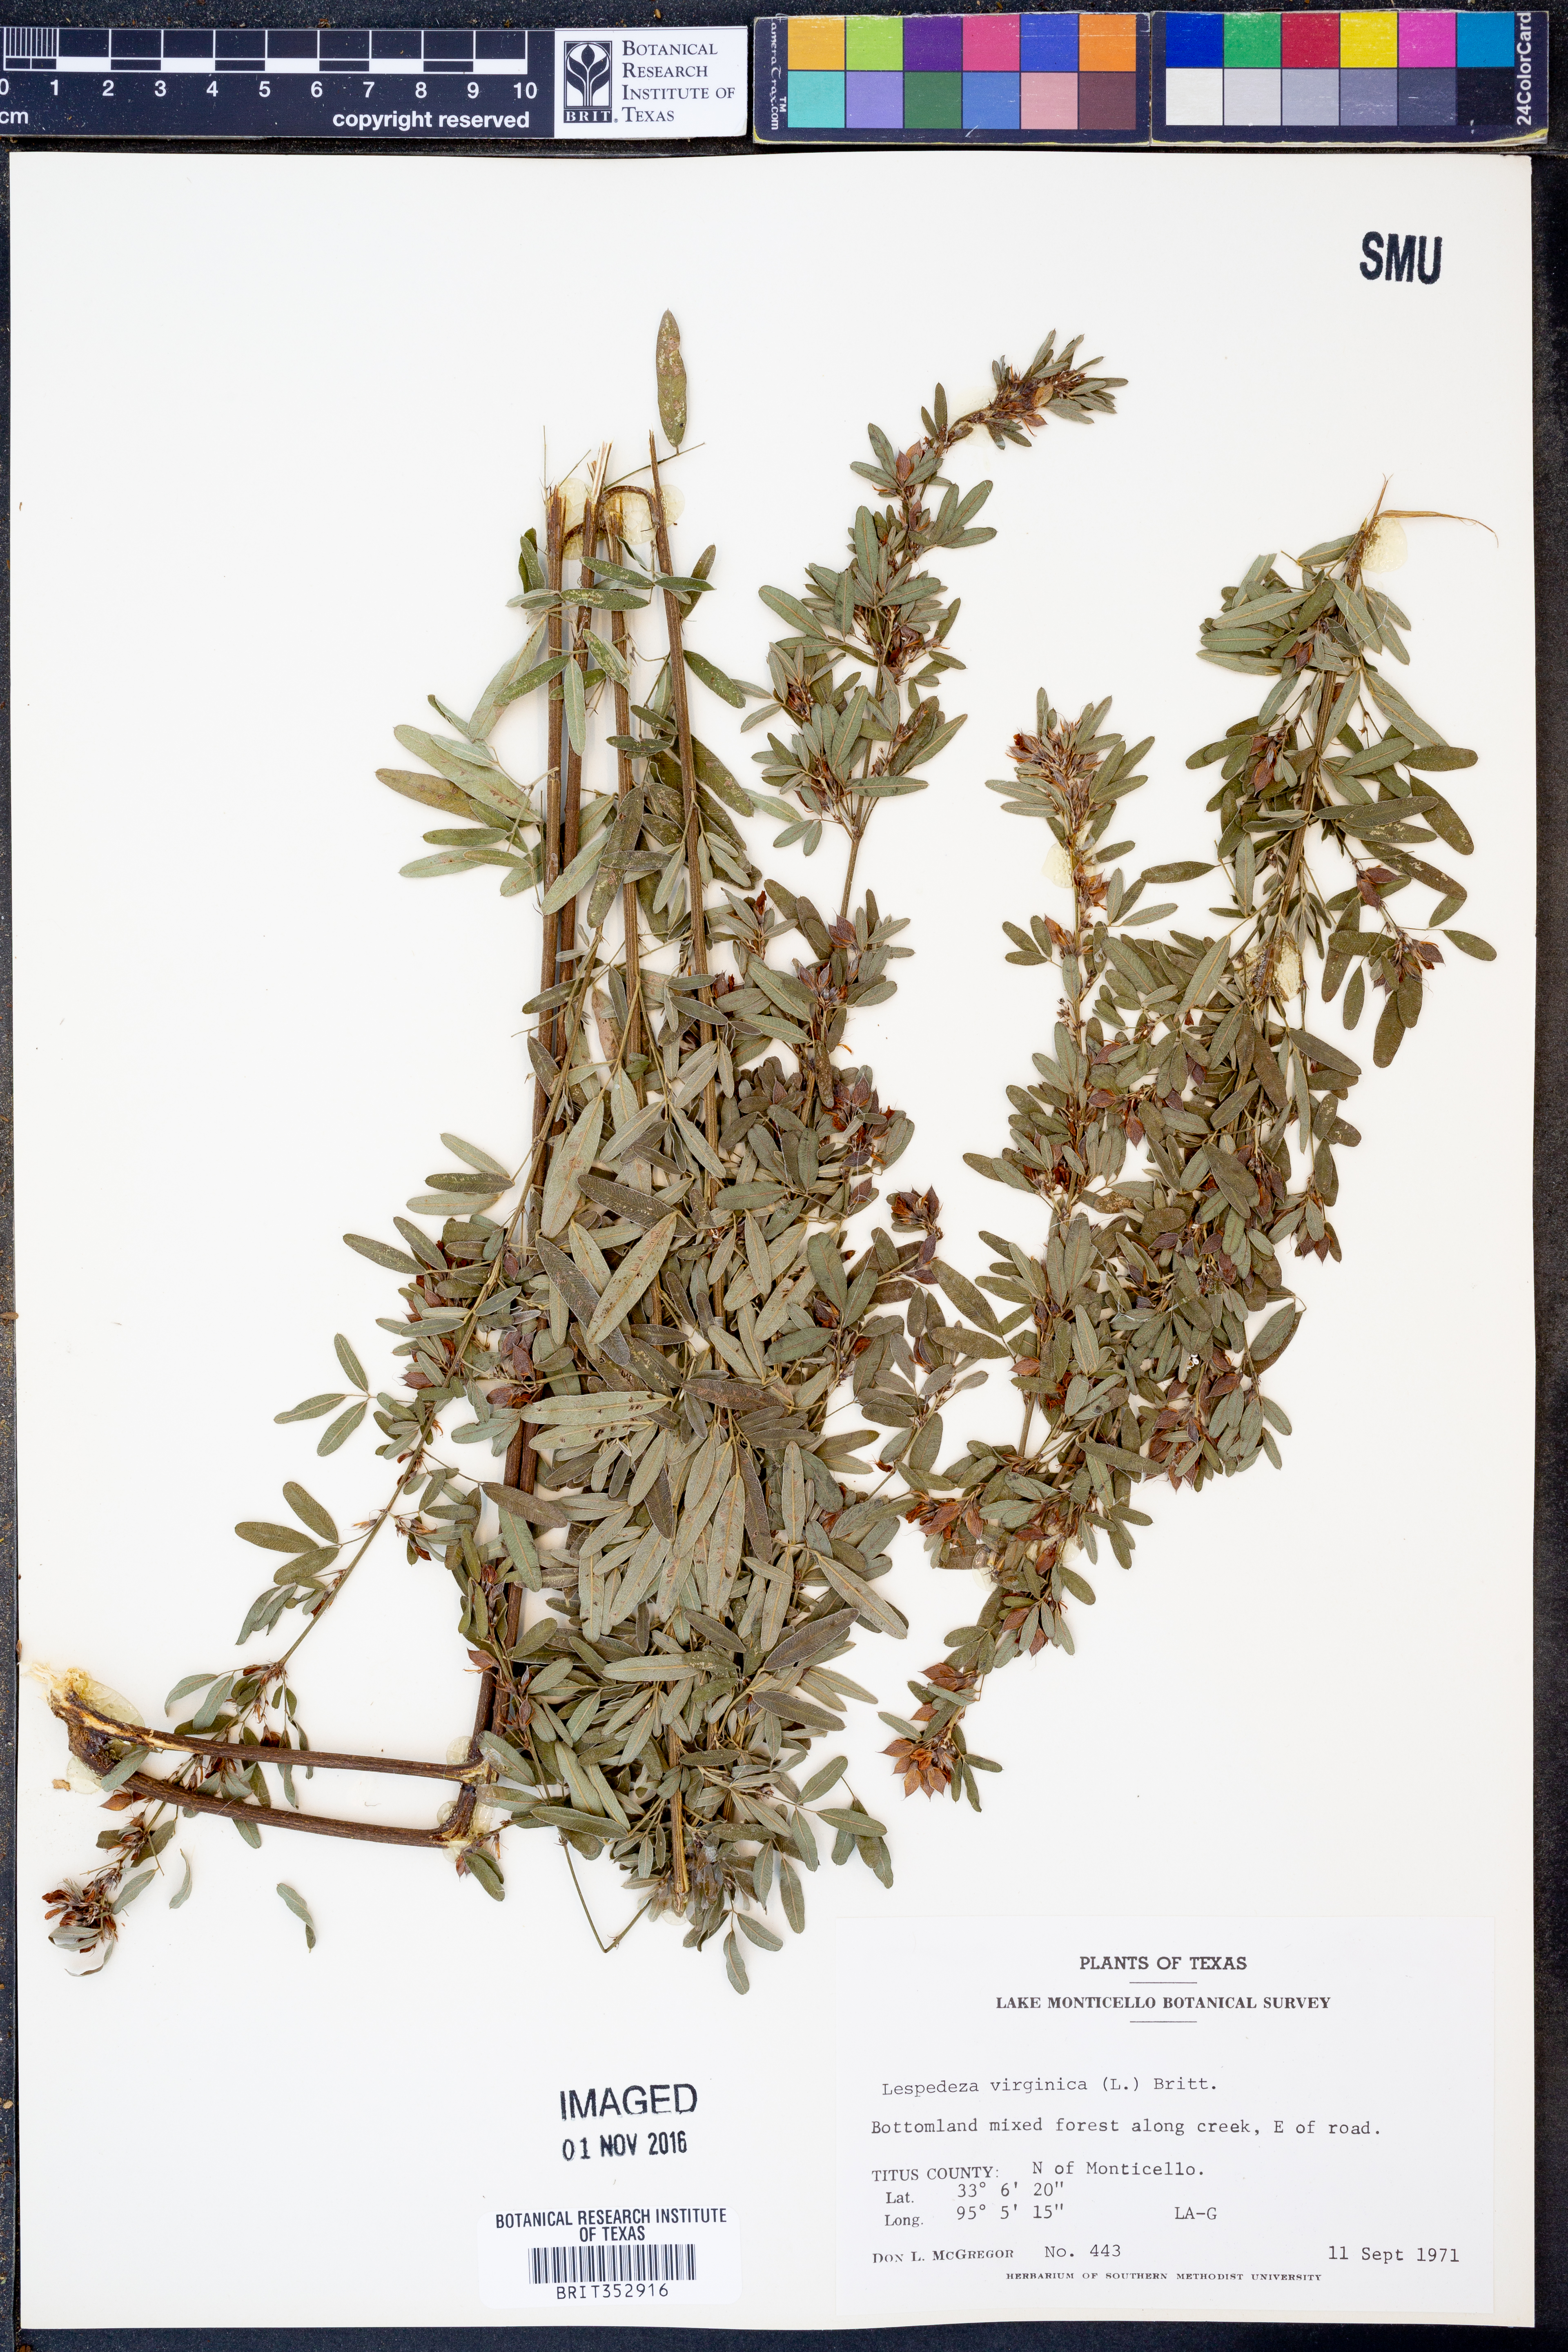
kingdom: Plantae
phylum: Tracheophyta
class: Magnoliopsida
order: Fabales
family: Fabaceae
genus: Lespedeza
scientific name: Lespedeza virginica
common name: Slender bush-clover
